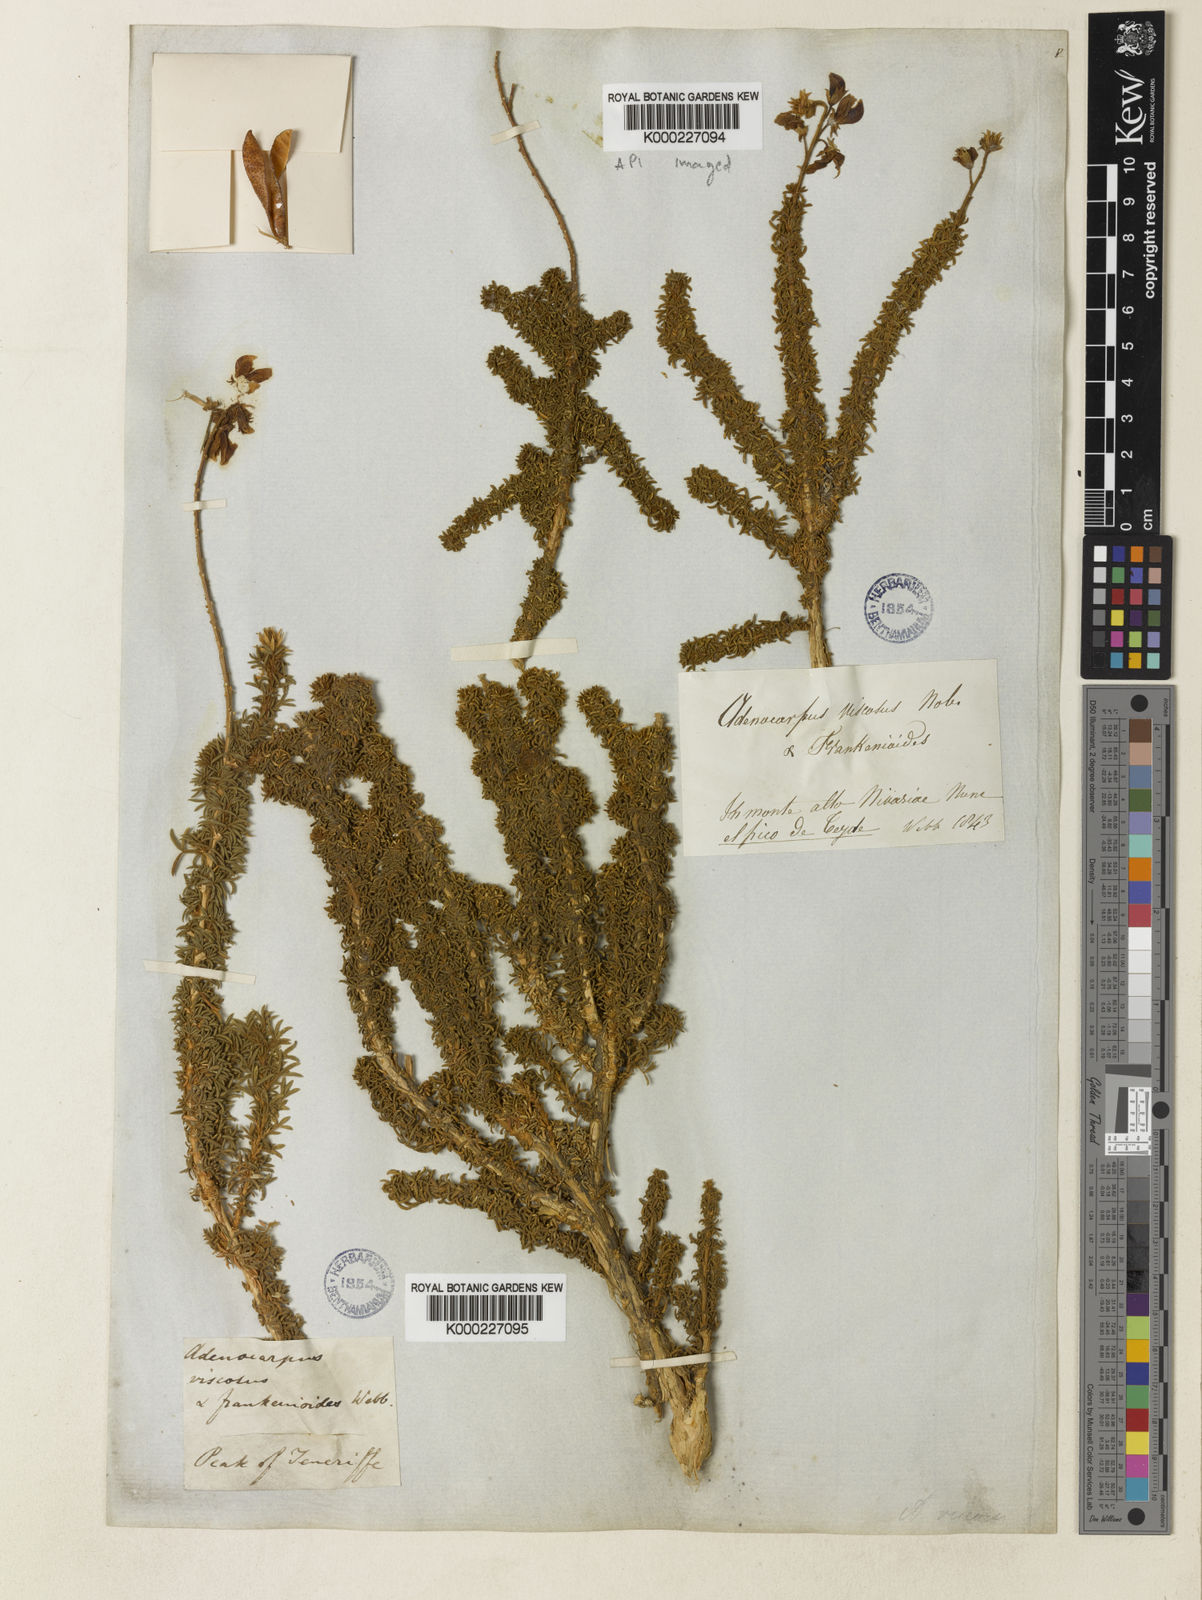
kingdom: Plantae
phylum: Tracheophyta
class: Magnoliopsida
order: Fabales
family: Fabaceae
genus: Adenocarpus
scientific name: Adenocarpus viscosus
